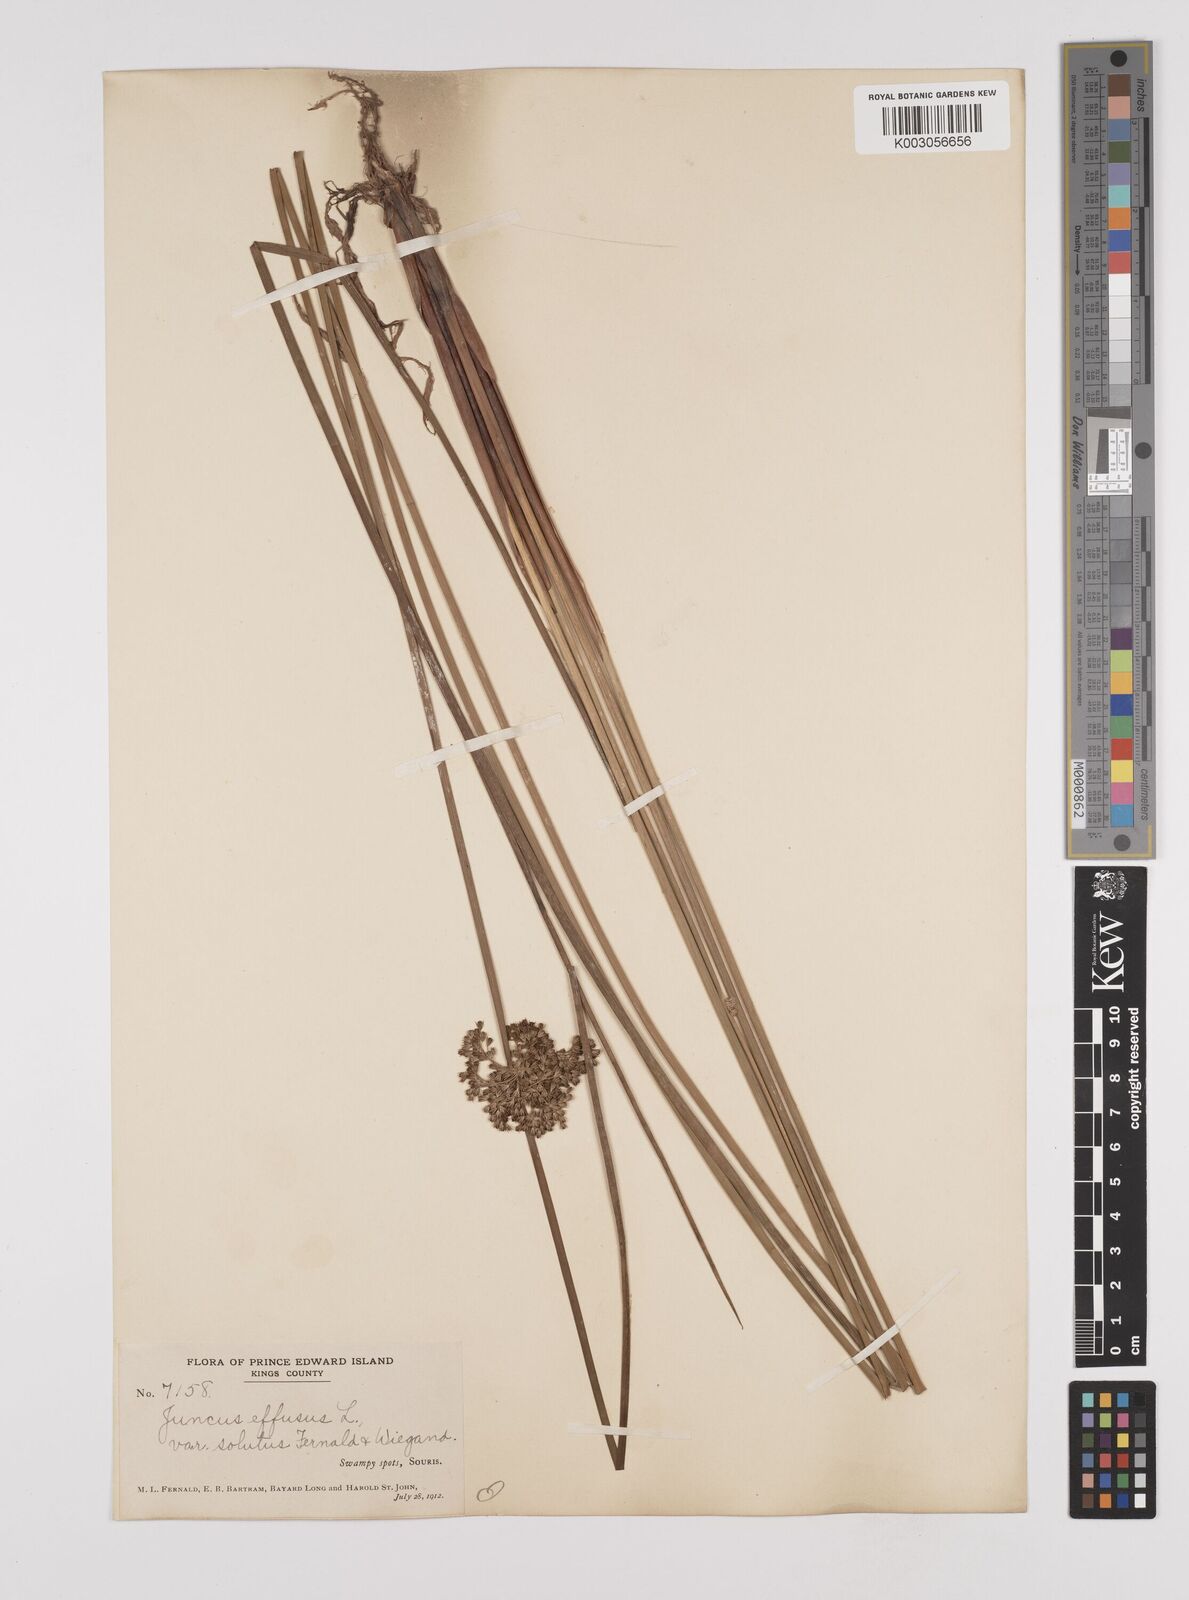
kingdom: Plantae
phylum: Tracheophyta
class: Liliopsida
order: Poales
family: Juncaceae
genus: Juncus
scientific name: Juncus effusus
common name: Soft rush
